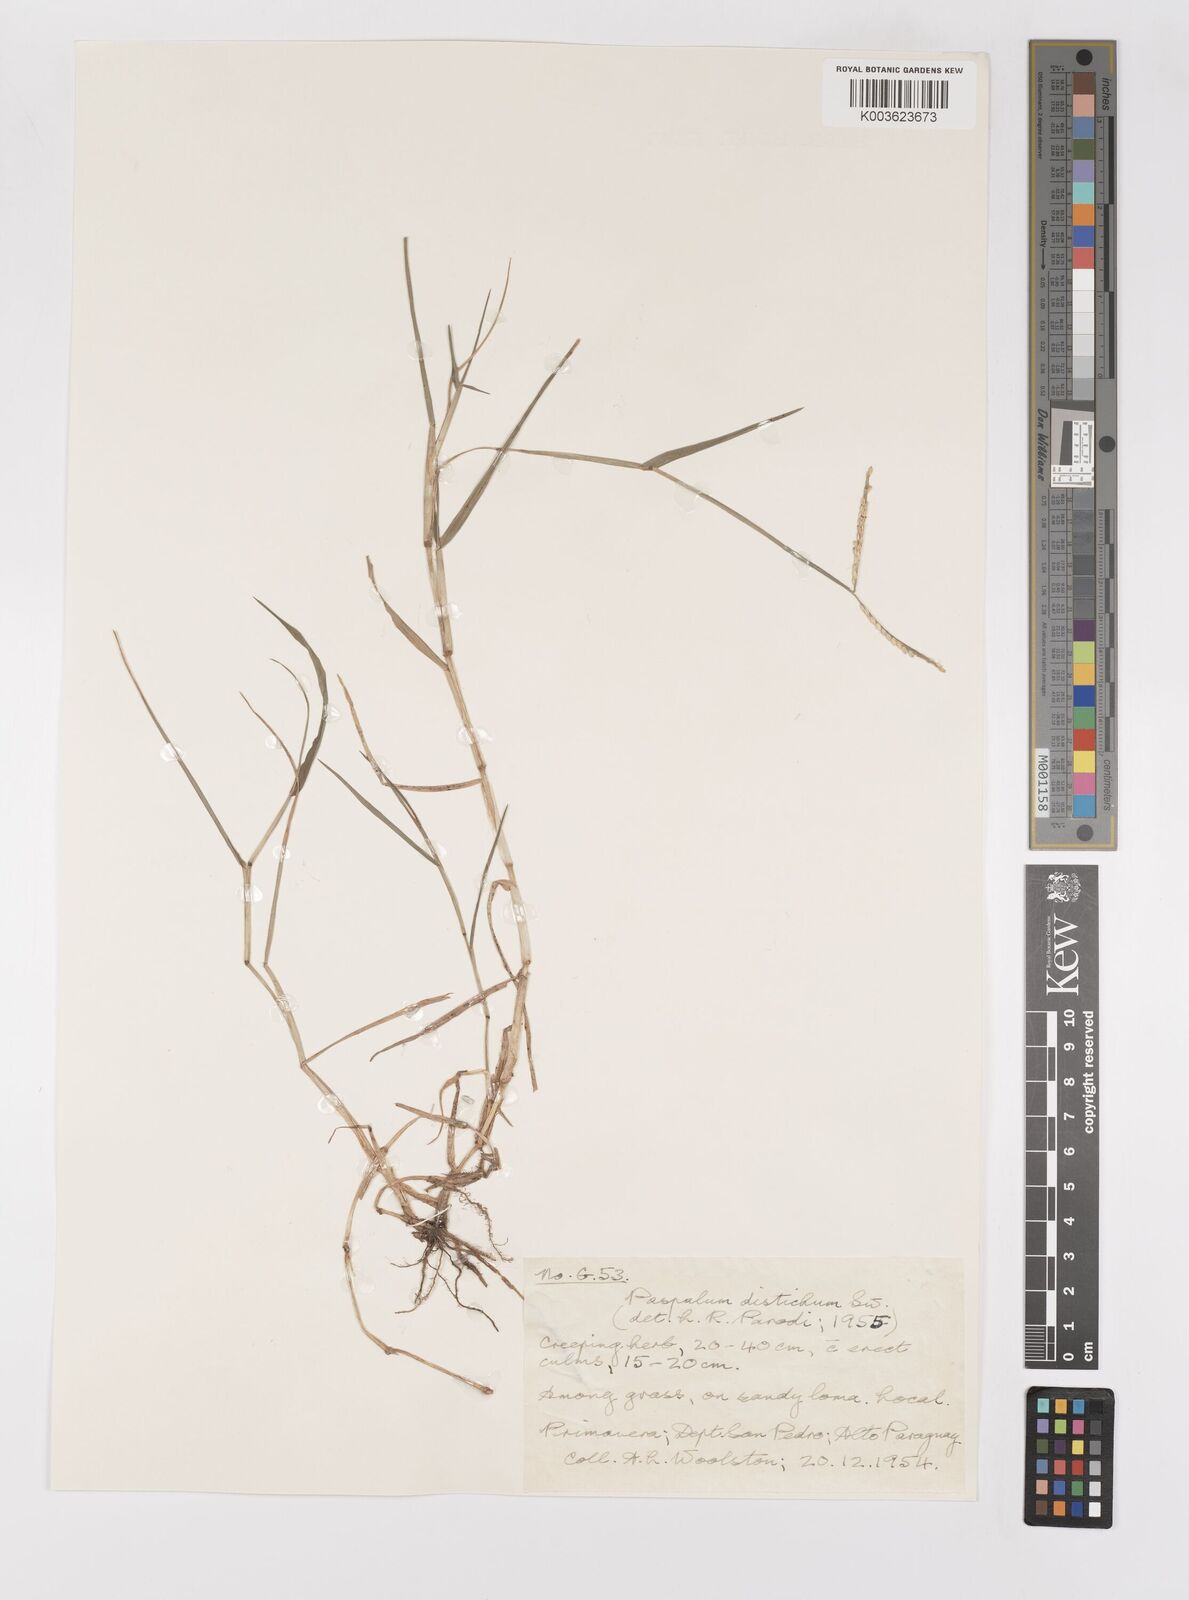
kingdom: Plantae
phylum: Tracheophyta
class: Liliopsida
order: Poales
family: Poaceae
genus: Paspalum
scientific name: Paspalum distichum
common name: Knotgrass
